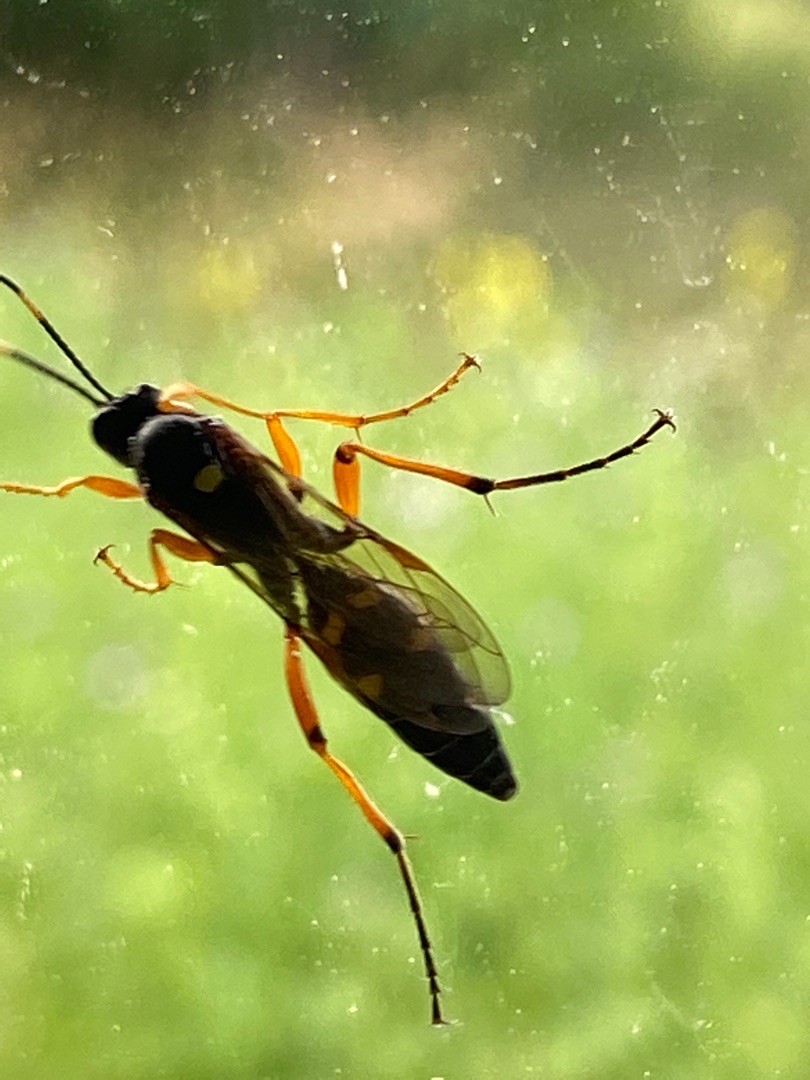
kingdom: Animalia
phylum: Arthropoda
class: Insecta
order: Hymenoptera
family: Ichneumonidae
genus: Diphyus
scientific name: Diphyus quadripunctorius
